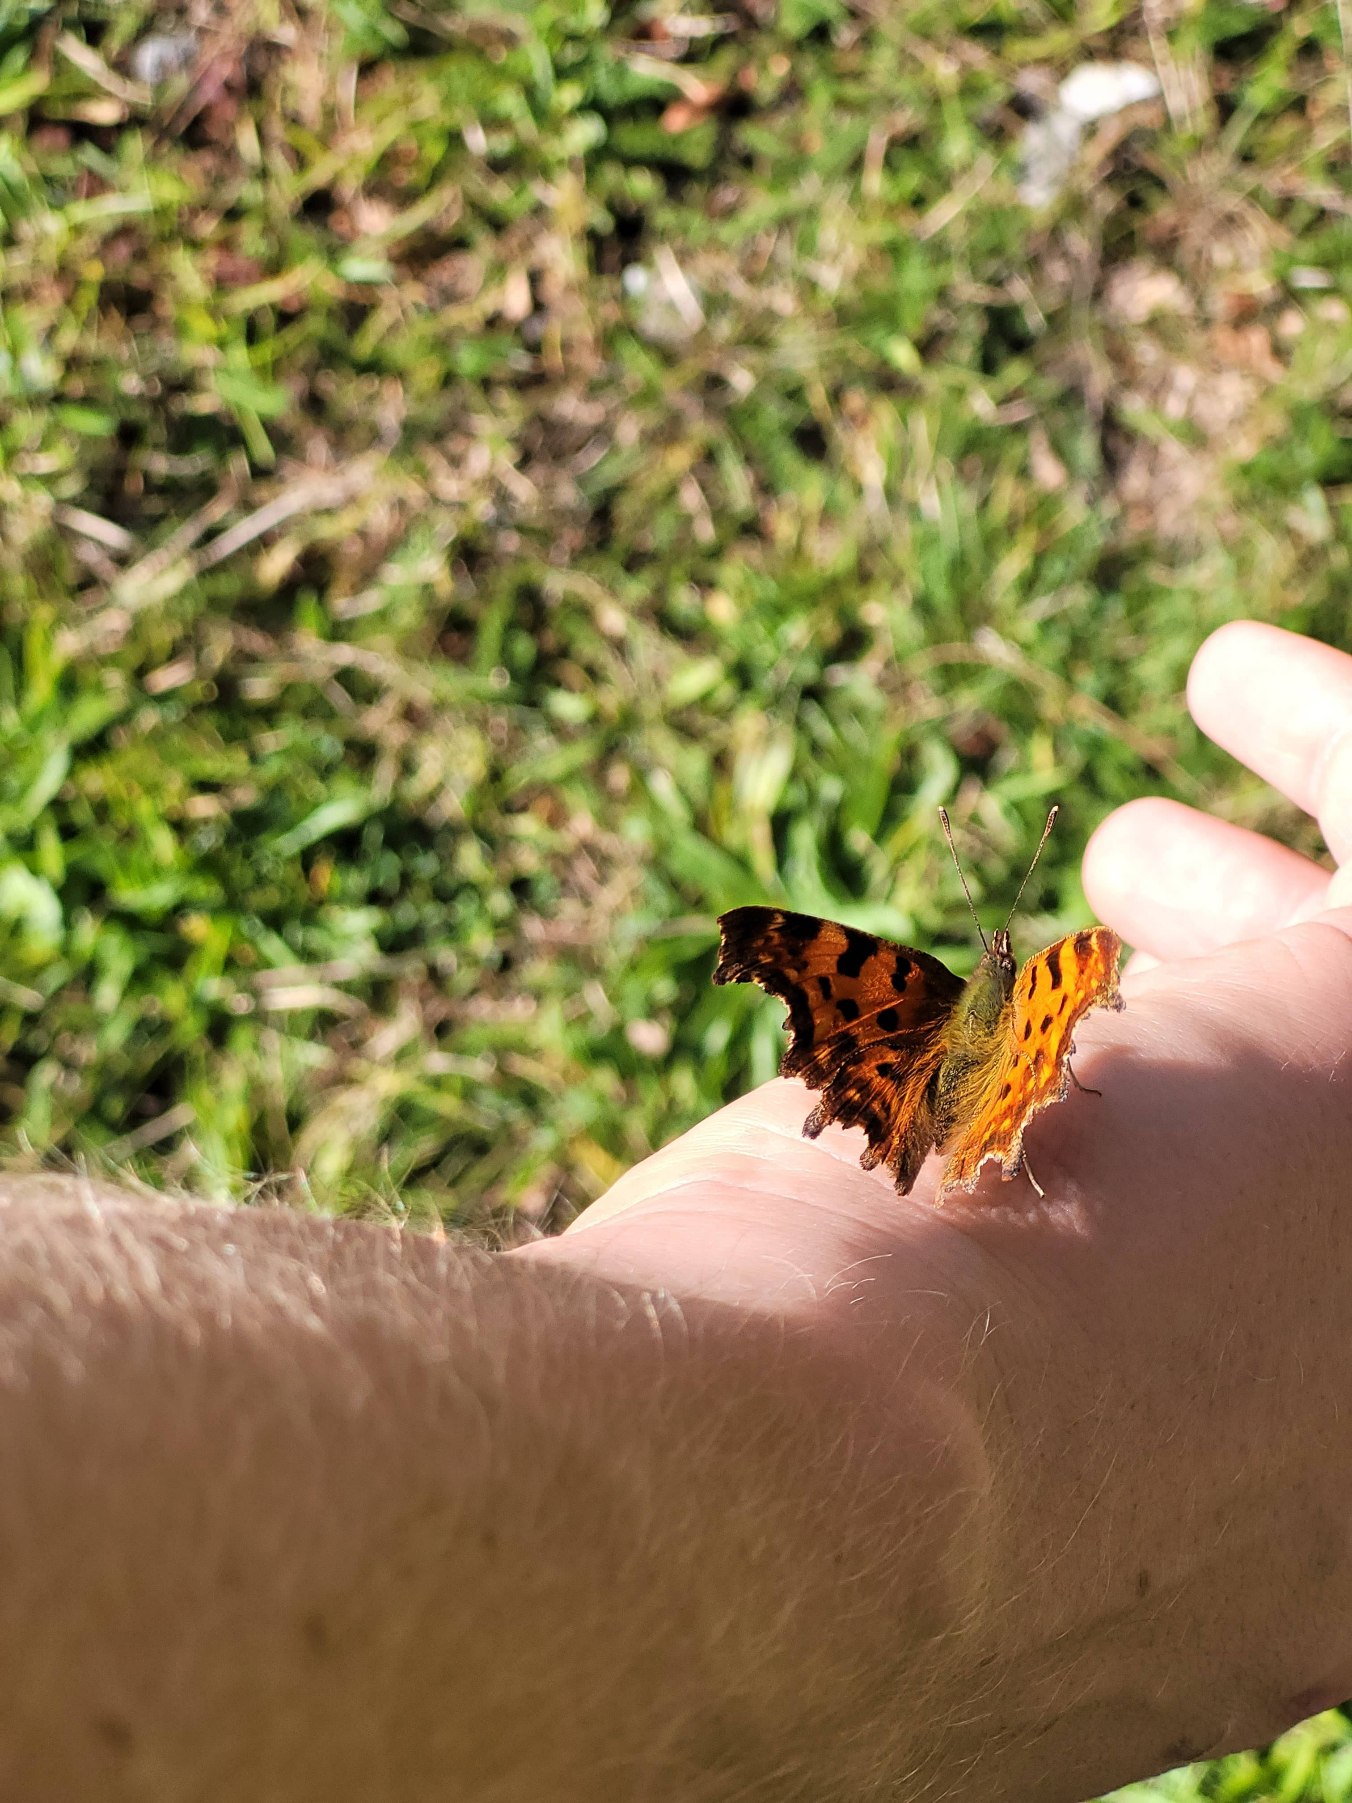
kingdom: Animalia
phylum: Arthropoda
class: Insecta
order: Lepidoptera
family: Nymphalidae
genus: Polygonia
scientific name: Polygonia c-album
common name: Det hvide C
